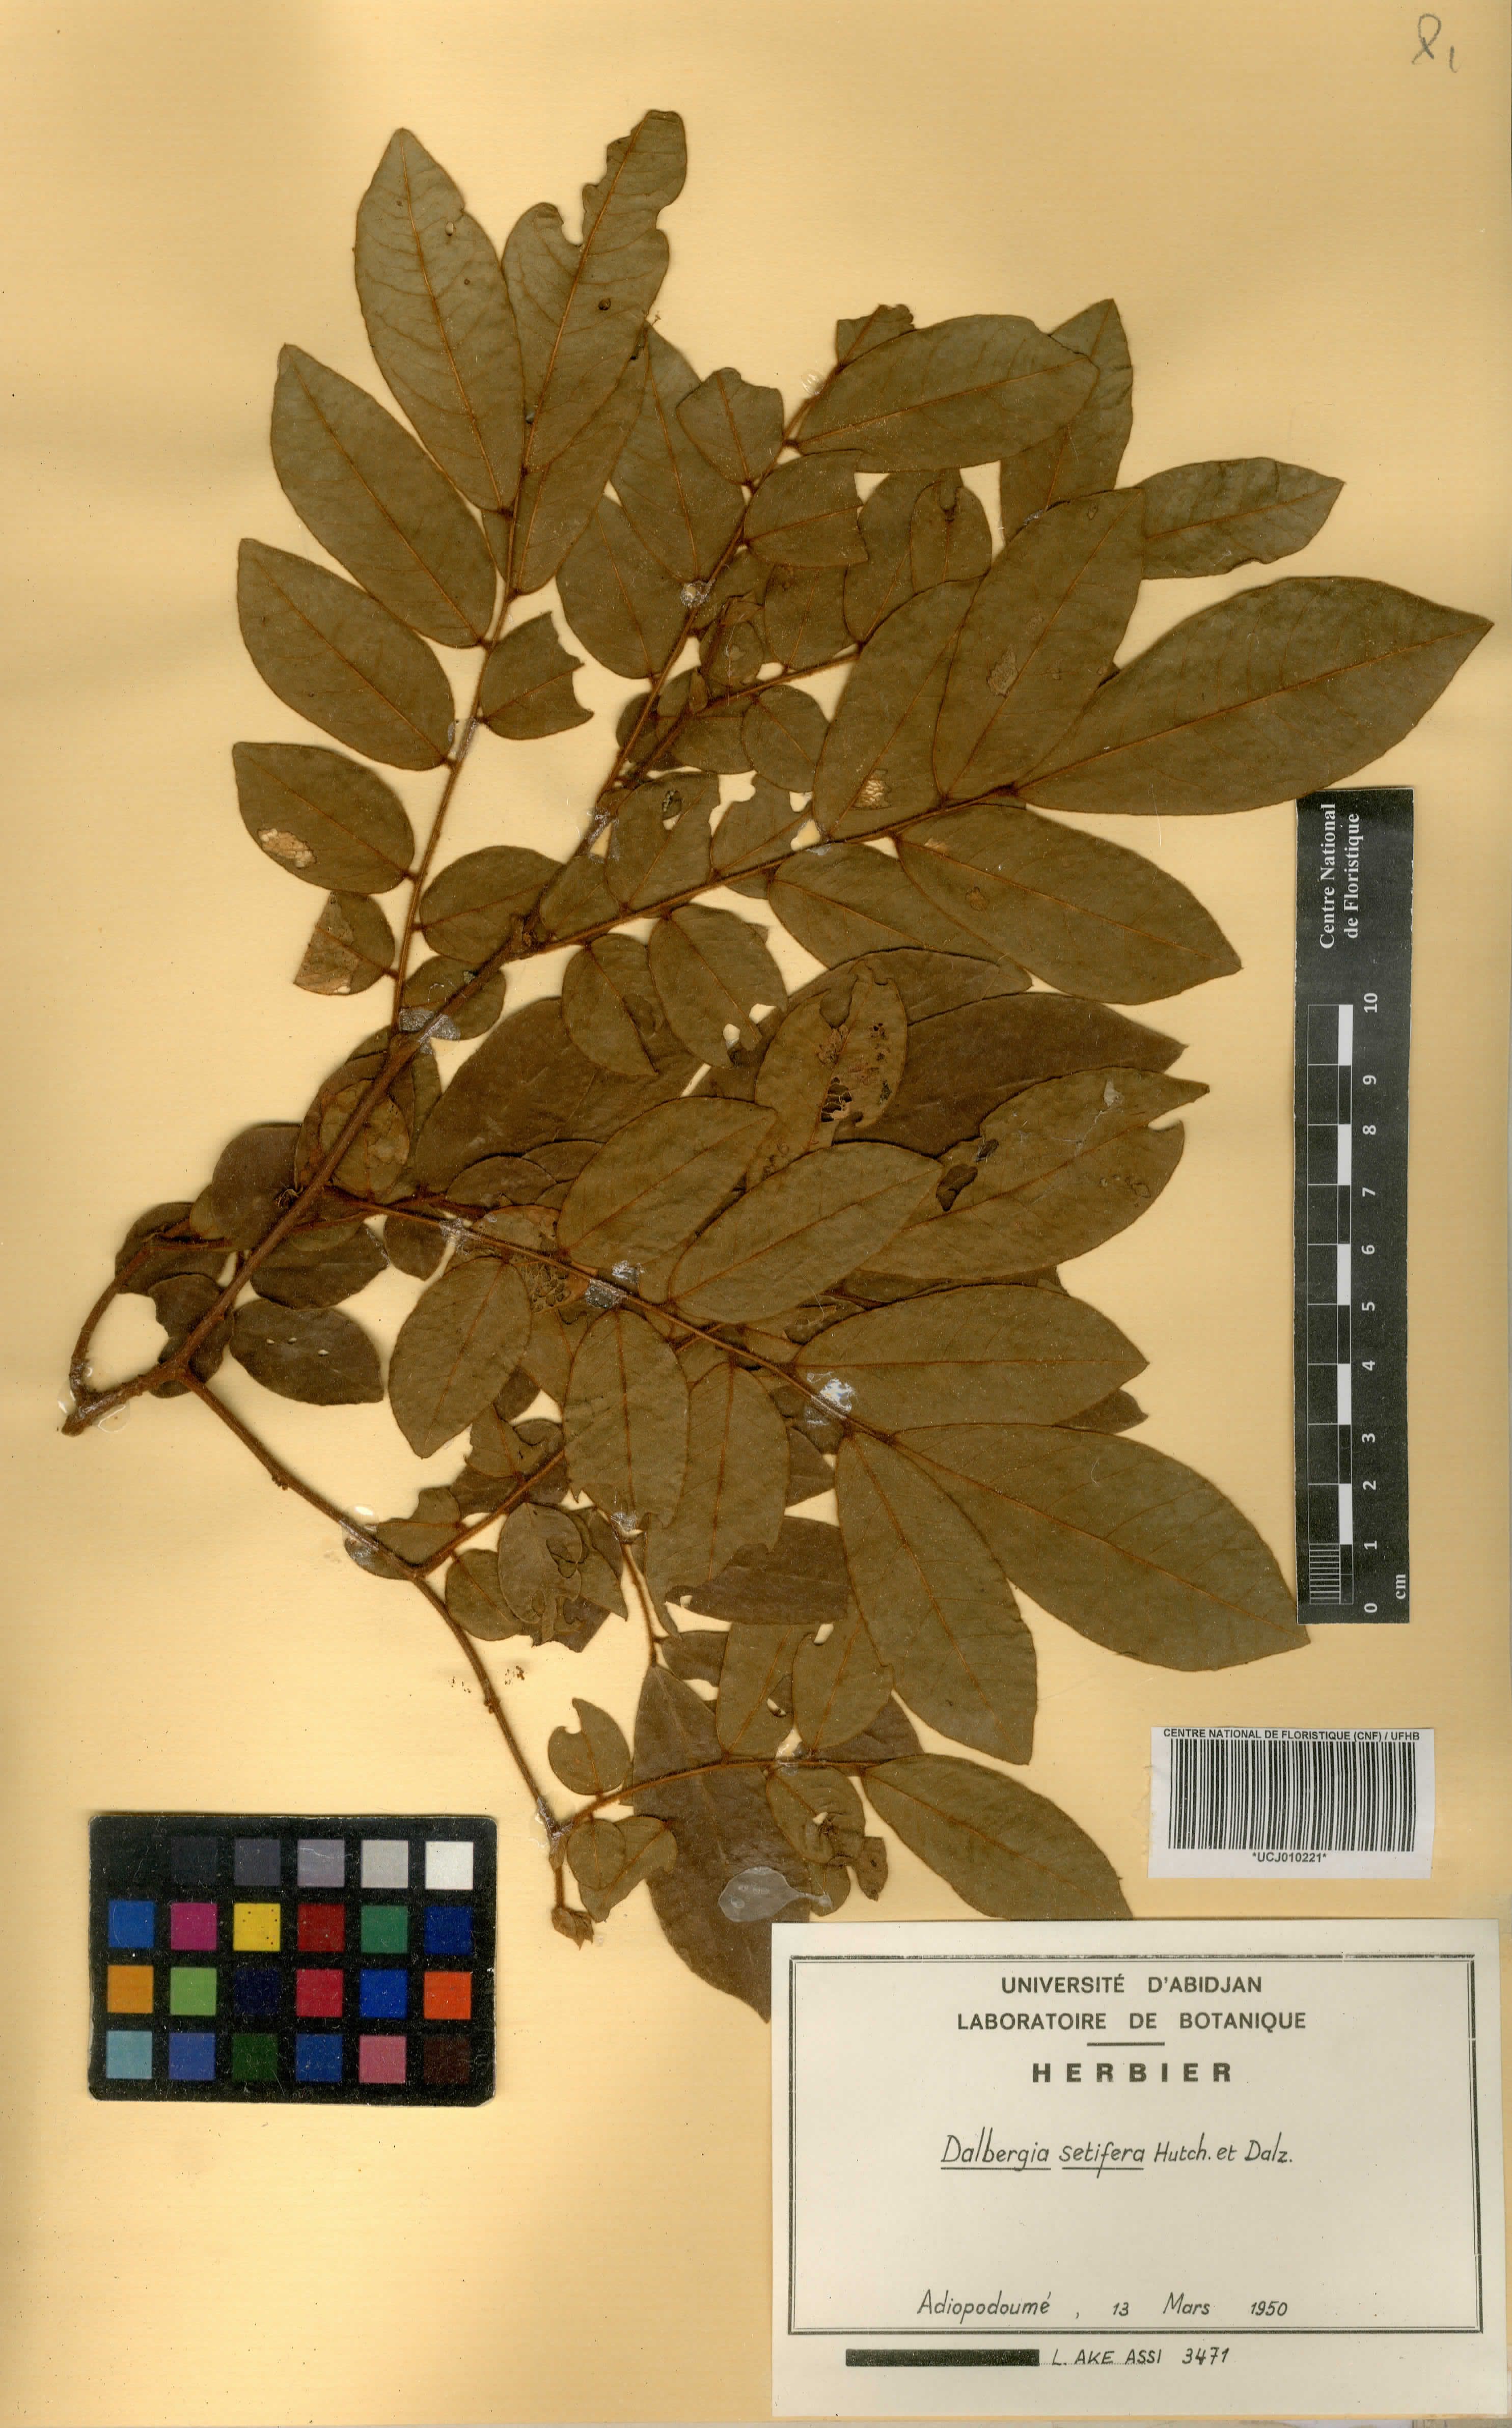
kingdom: Plantae
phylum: Tracheophyta
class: Magnoliopsida
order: Fabales
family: Fabaceae
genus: Dalbergia
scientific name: Dalbergia setifera
